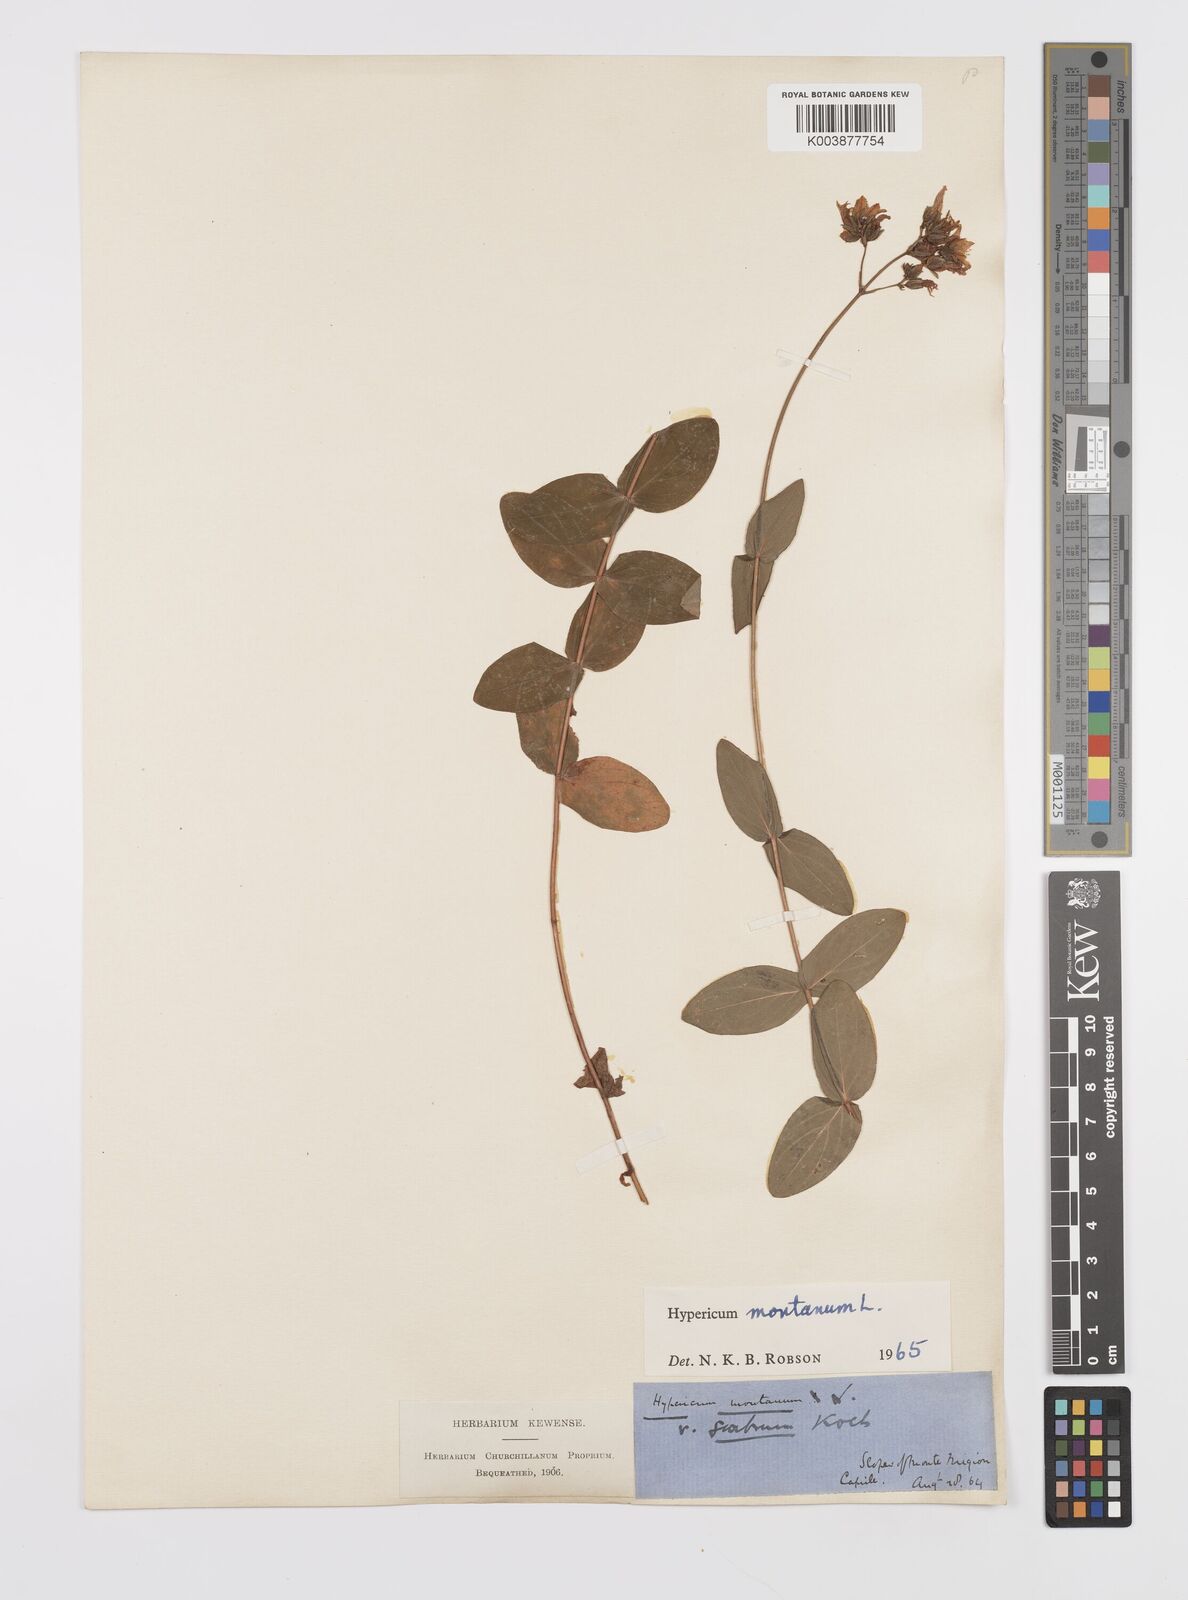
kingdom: Plantae
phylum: Tracheophyta
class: Magnoliopsida
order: Malpighiales
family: Hypericaceae
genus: Hypericum
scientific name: Hypericum montanum
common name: Pale st. john's-wort
